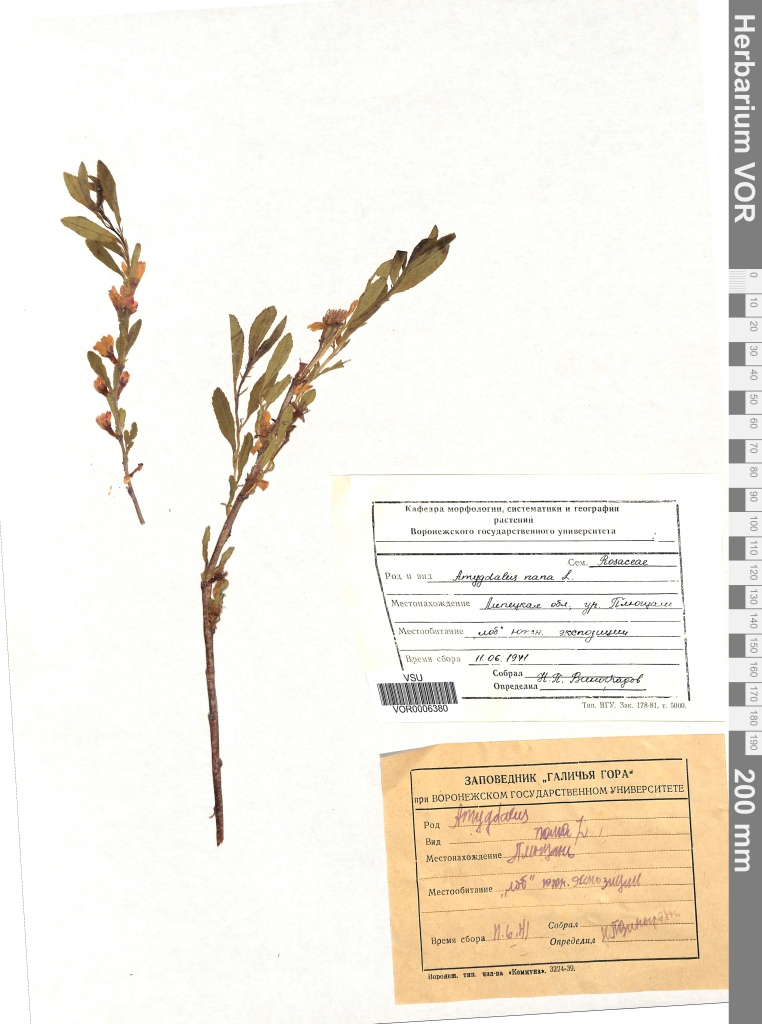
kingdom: Plantae
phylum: Tracheophyta
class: Magnoliopsida
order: Rosales
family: Rosaceae
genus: Prunus
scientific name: Prunus tenella
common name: Dwarf russian almond
